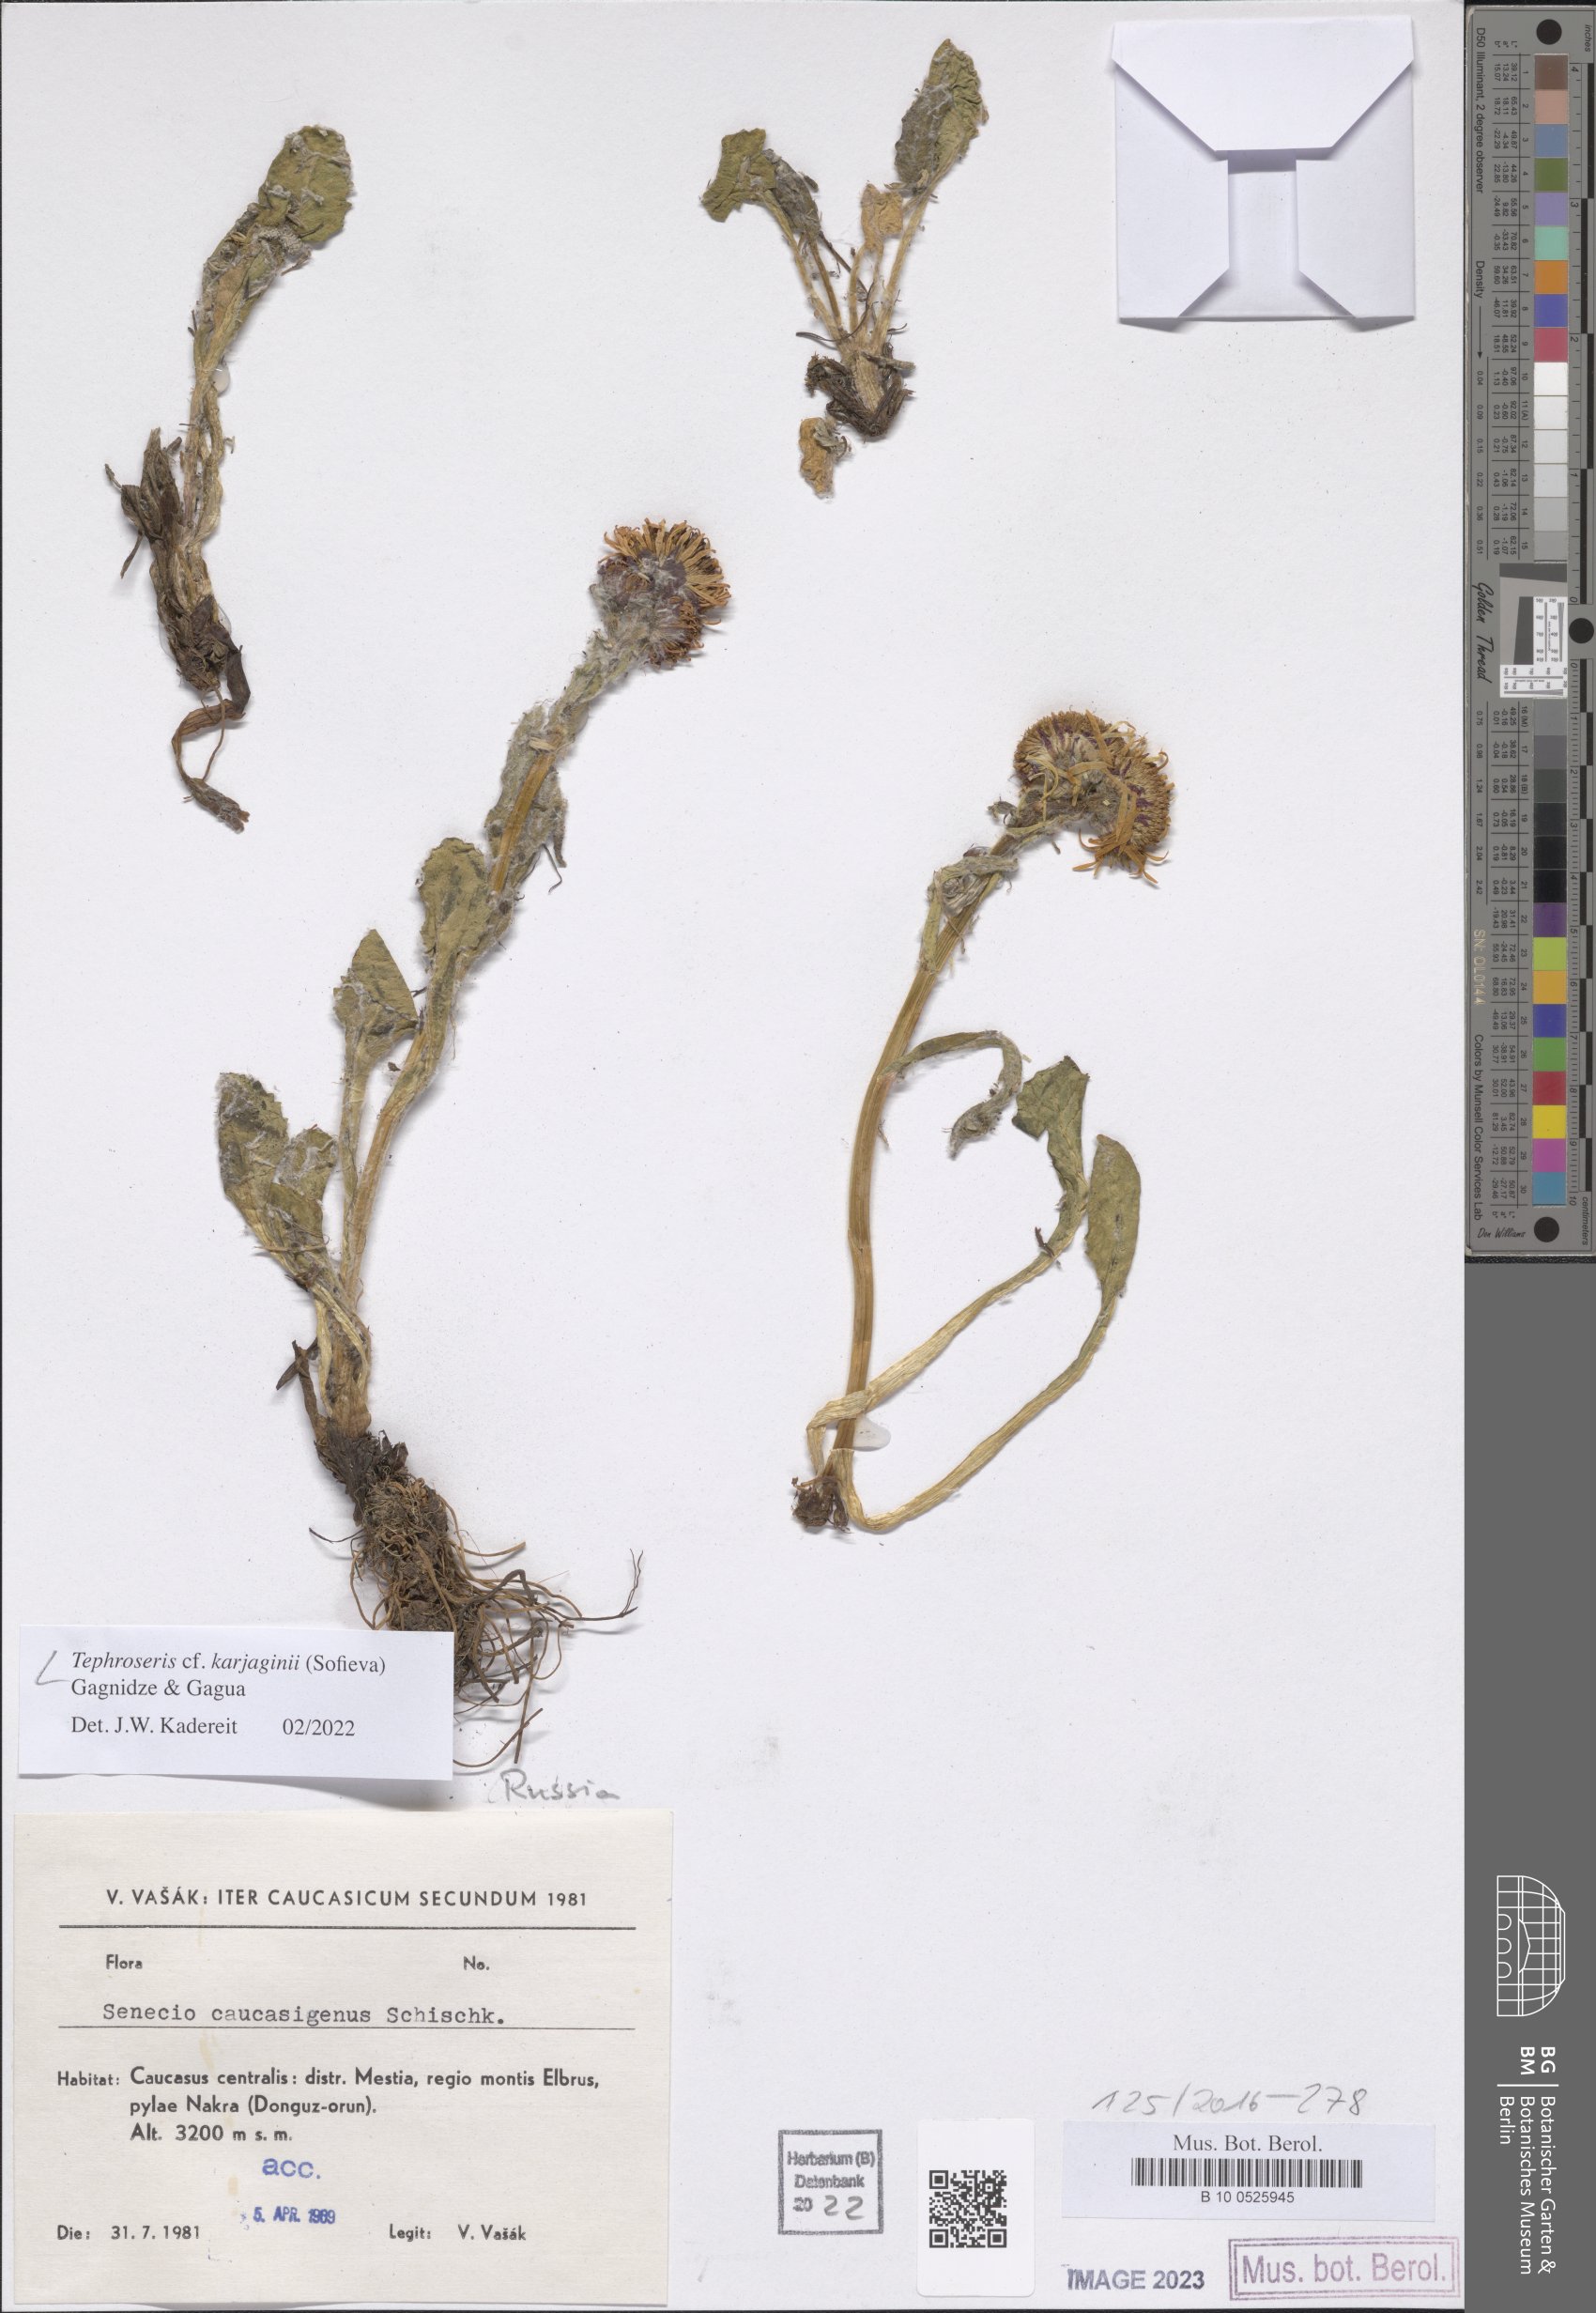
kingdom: Plantae
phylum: Tracheophyta
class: Magnoliopsida
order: Asterales
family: Asteraceae
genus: Tephroseris
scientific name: Tephroseris integrifolia
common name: Field fleawort
